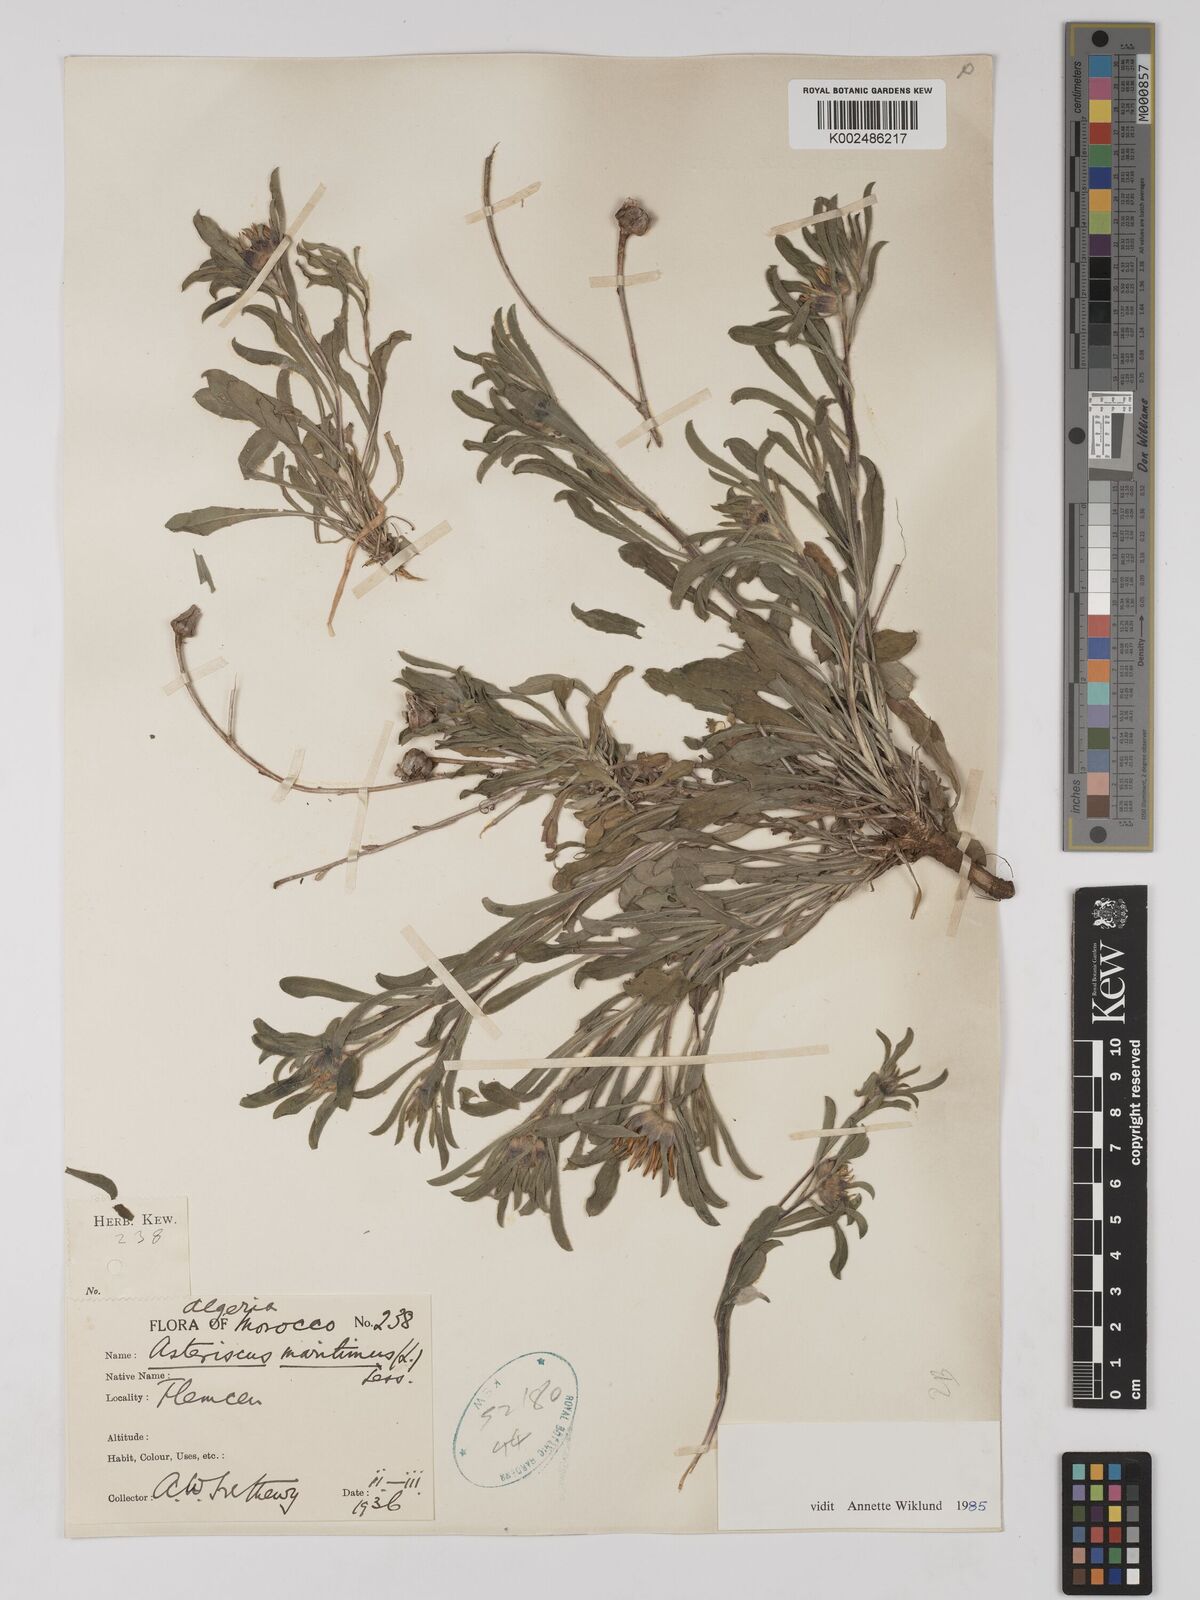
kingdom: Plantae
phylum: Tracheophyta
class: Magnoliopsida
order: Asterales
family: Asteraceae
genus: Pallenis
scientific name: Pallenis maritima
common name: Golden coin daisy
